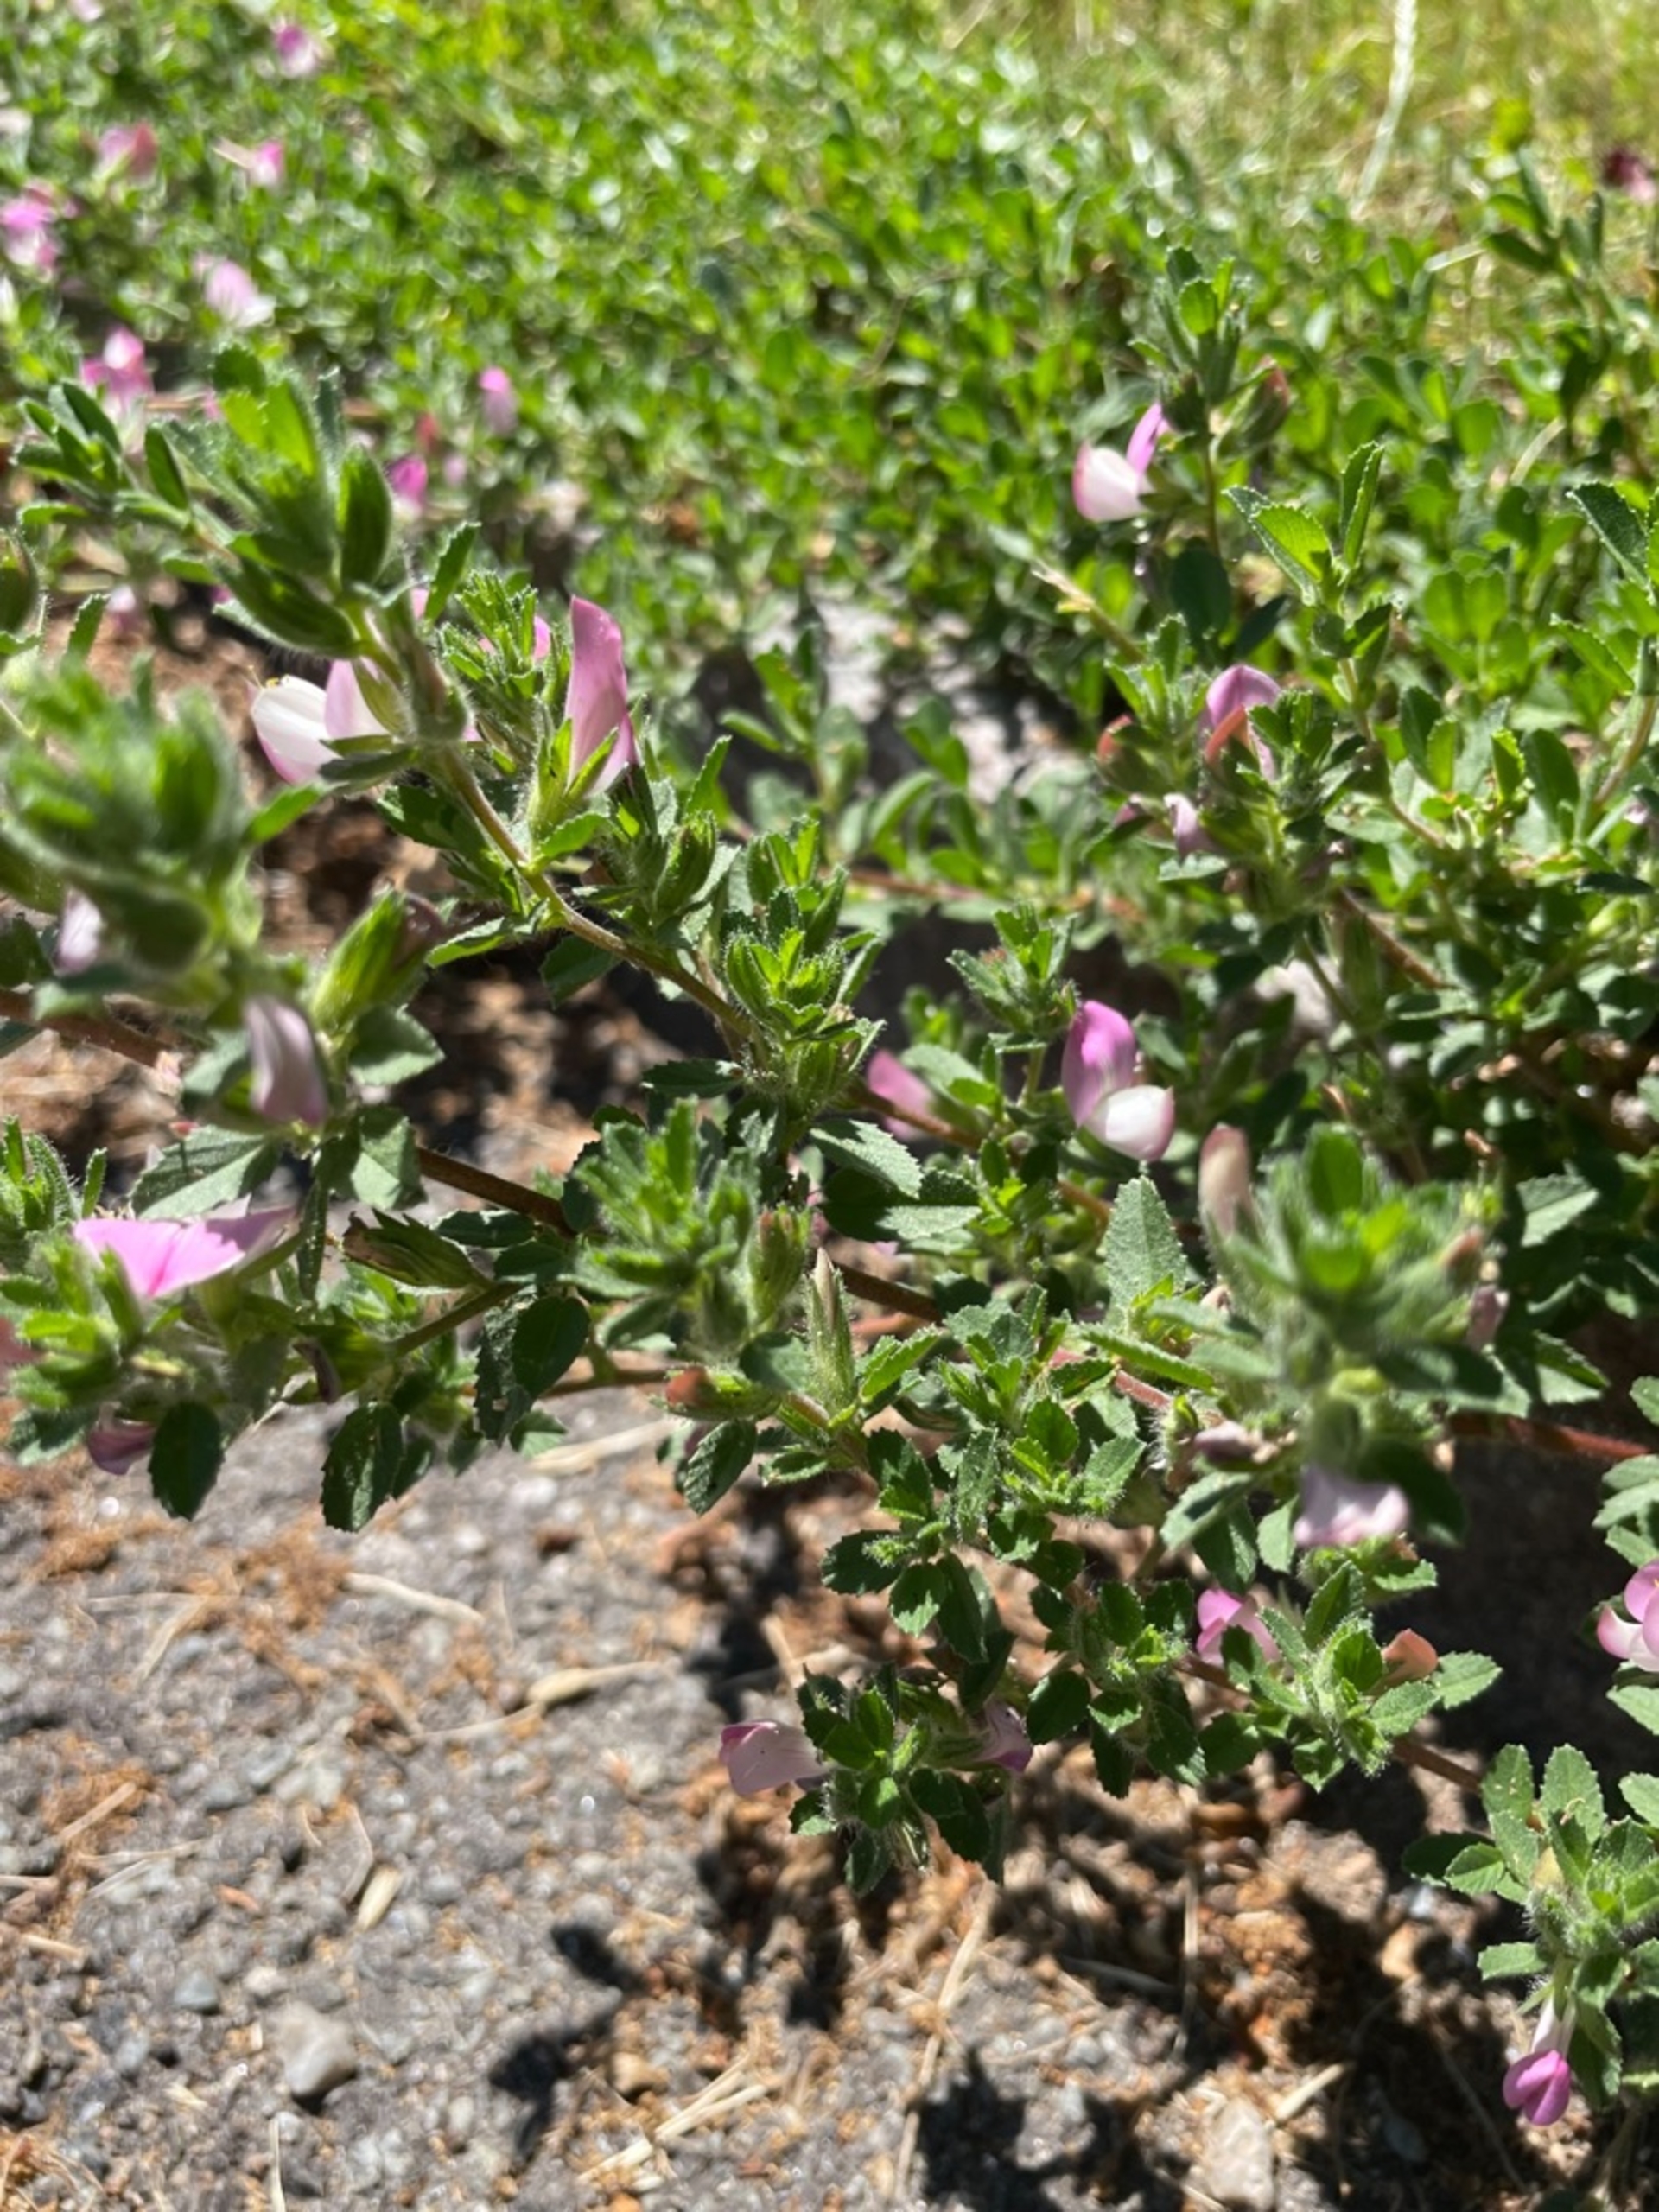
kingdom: Plantae
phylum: Tracheophyta
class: Magnoliopsida
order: Fabales
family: Fabaceae
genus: Ononis
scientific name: Ononis spinosa
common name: Mark-krageklo
